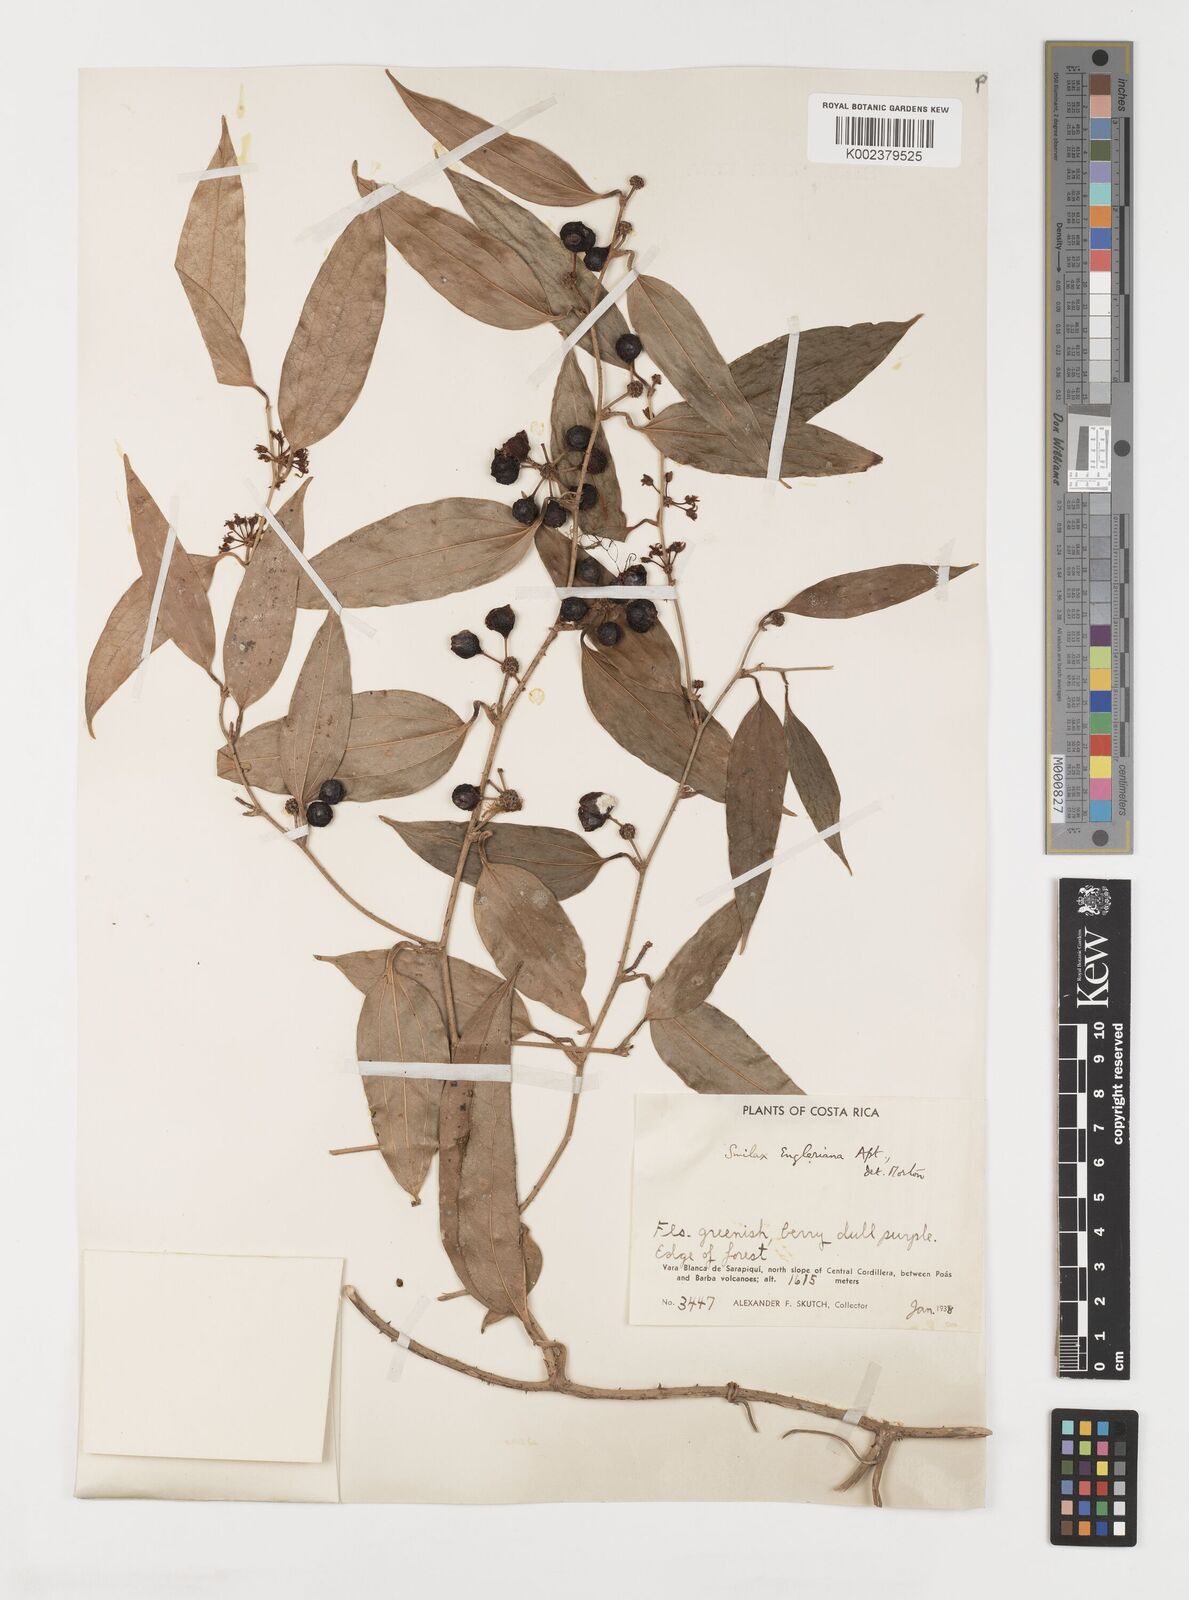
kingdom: Plantae
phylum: Tracheophyta
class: Liliopsida
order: Liliales
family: Smilacaceae
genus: Smilax
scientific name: Smilax domingensis
